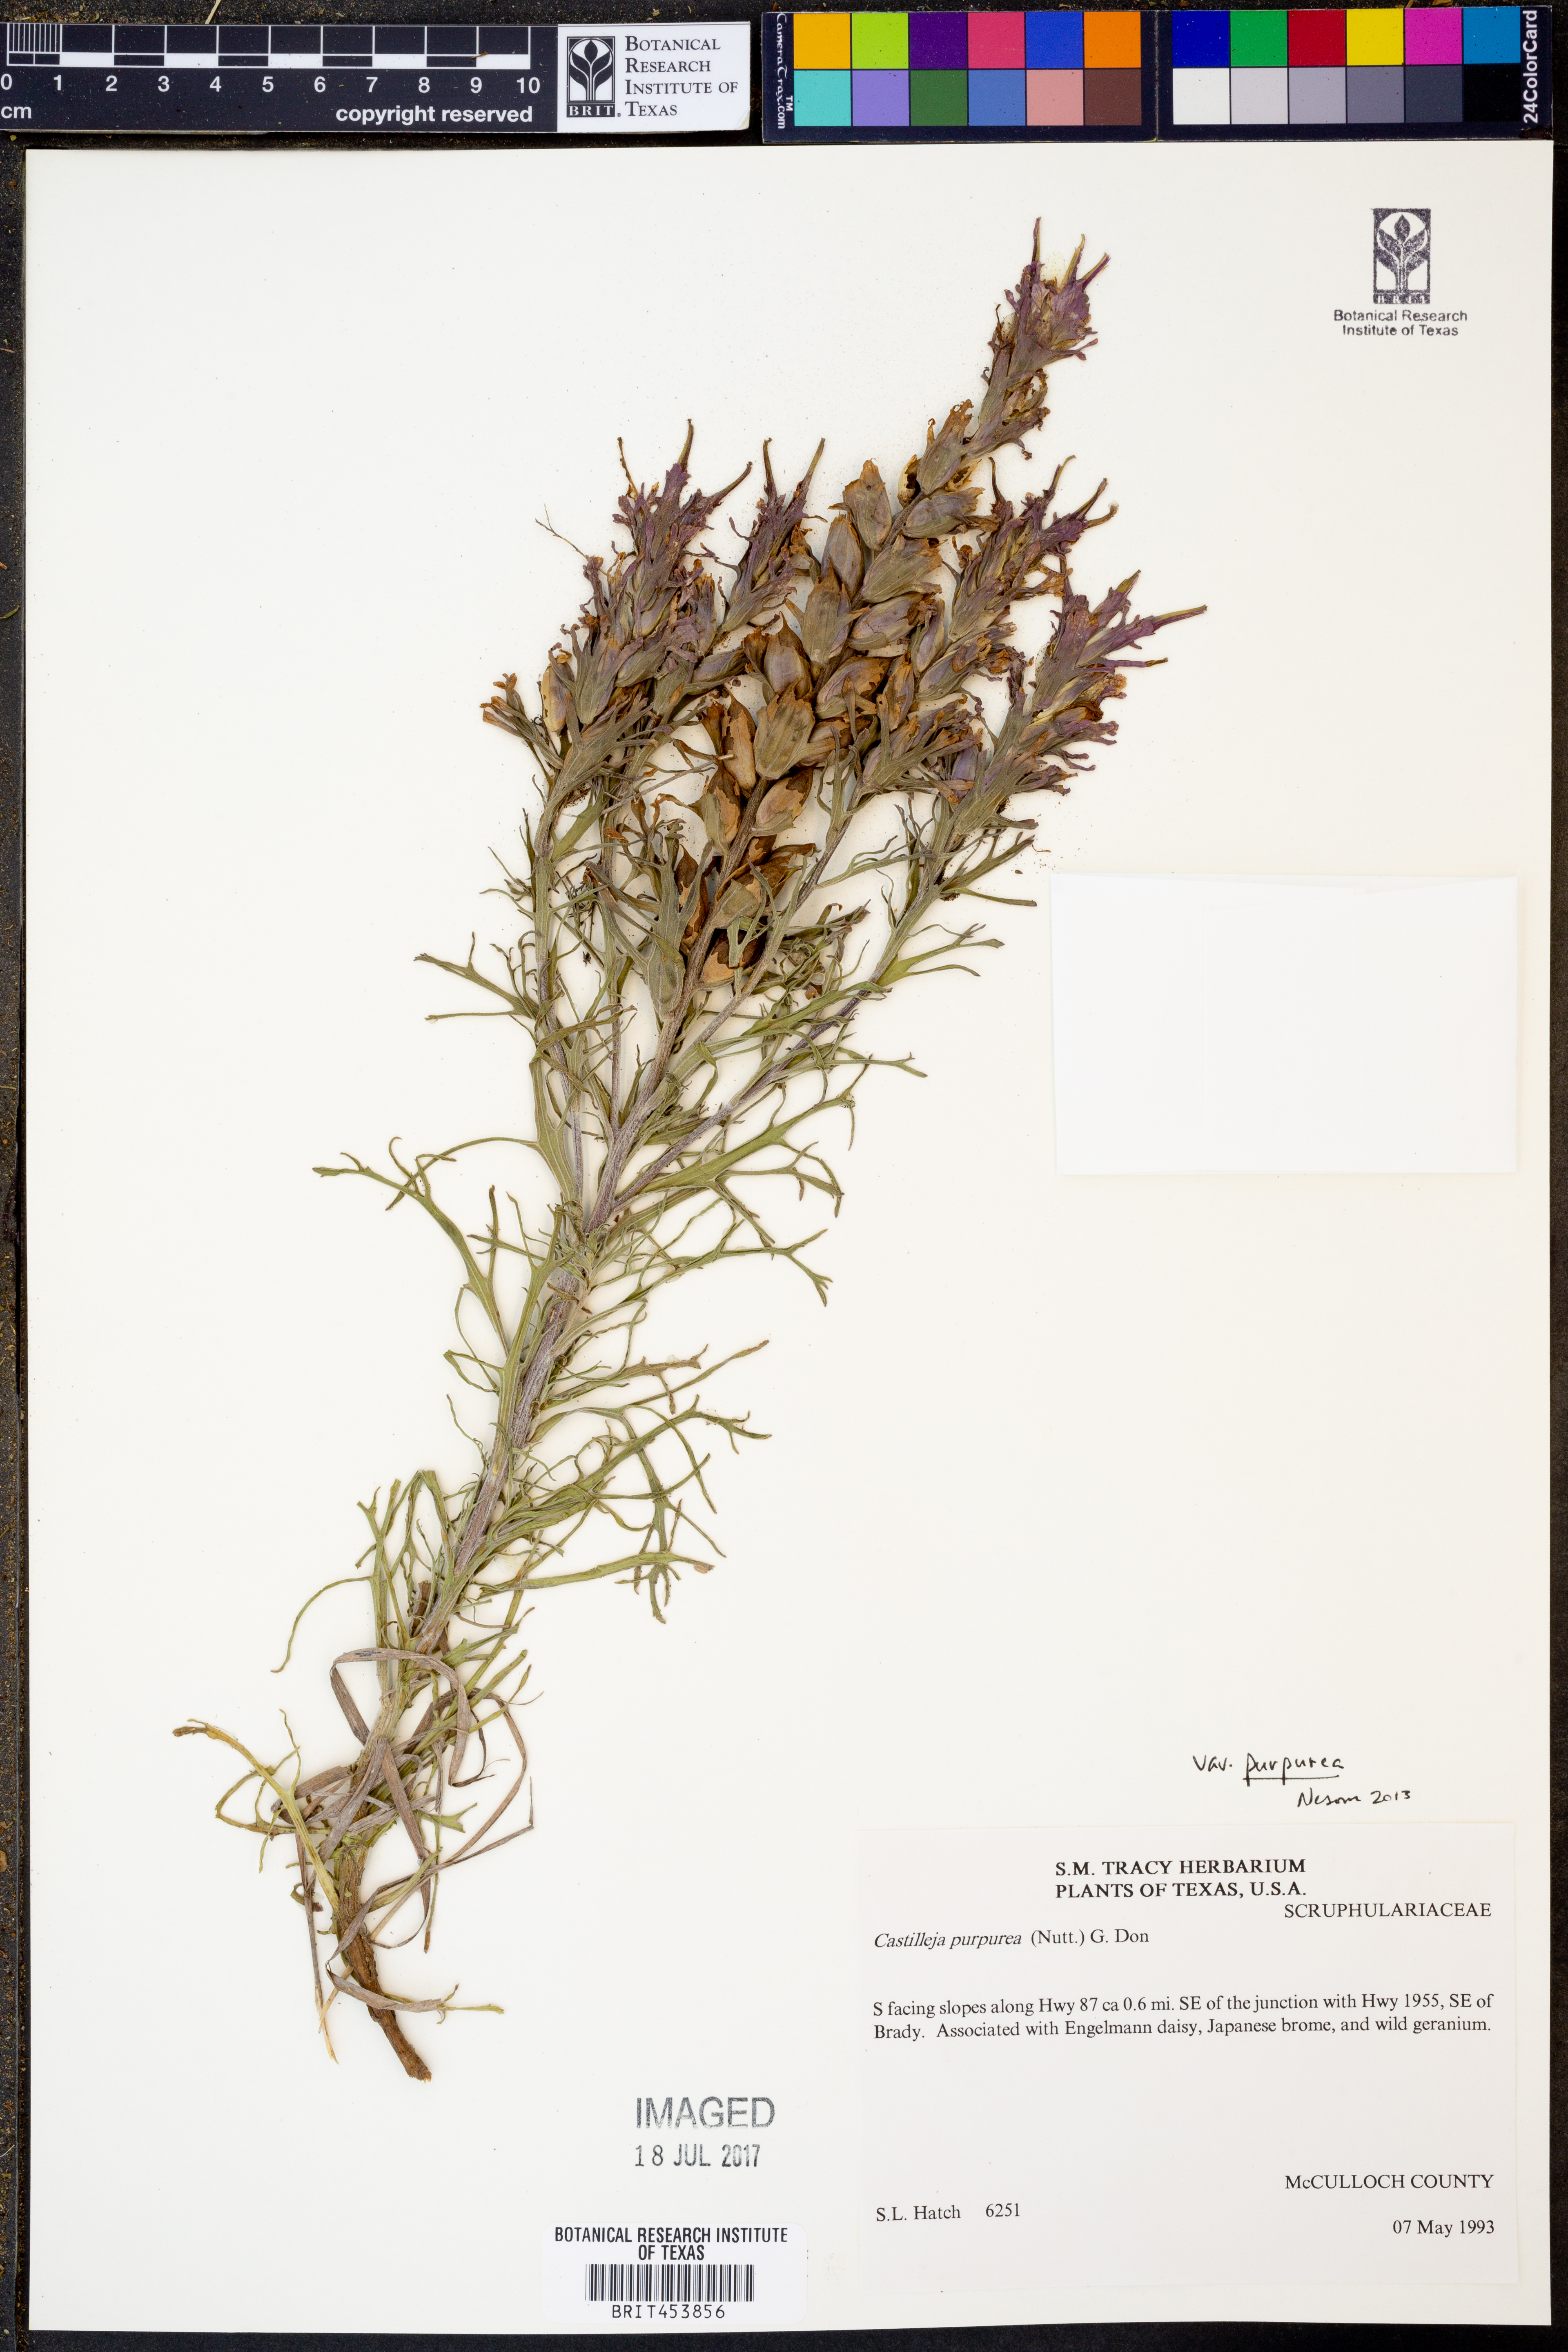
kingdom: Plantae
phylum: Tracheophyta
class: Magnoliopsida
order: Lamiales
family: Orobanchaceae
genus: Castilleja
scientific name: Castilleja purpurea
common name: Plains paintbrush
